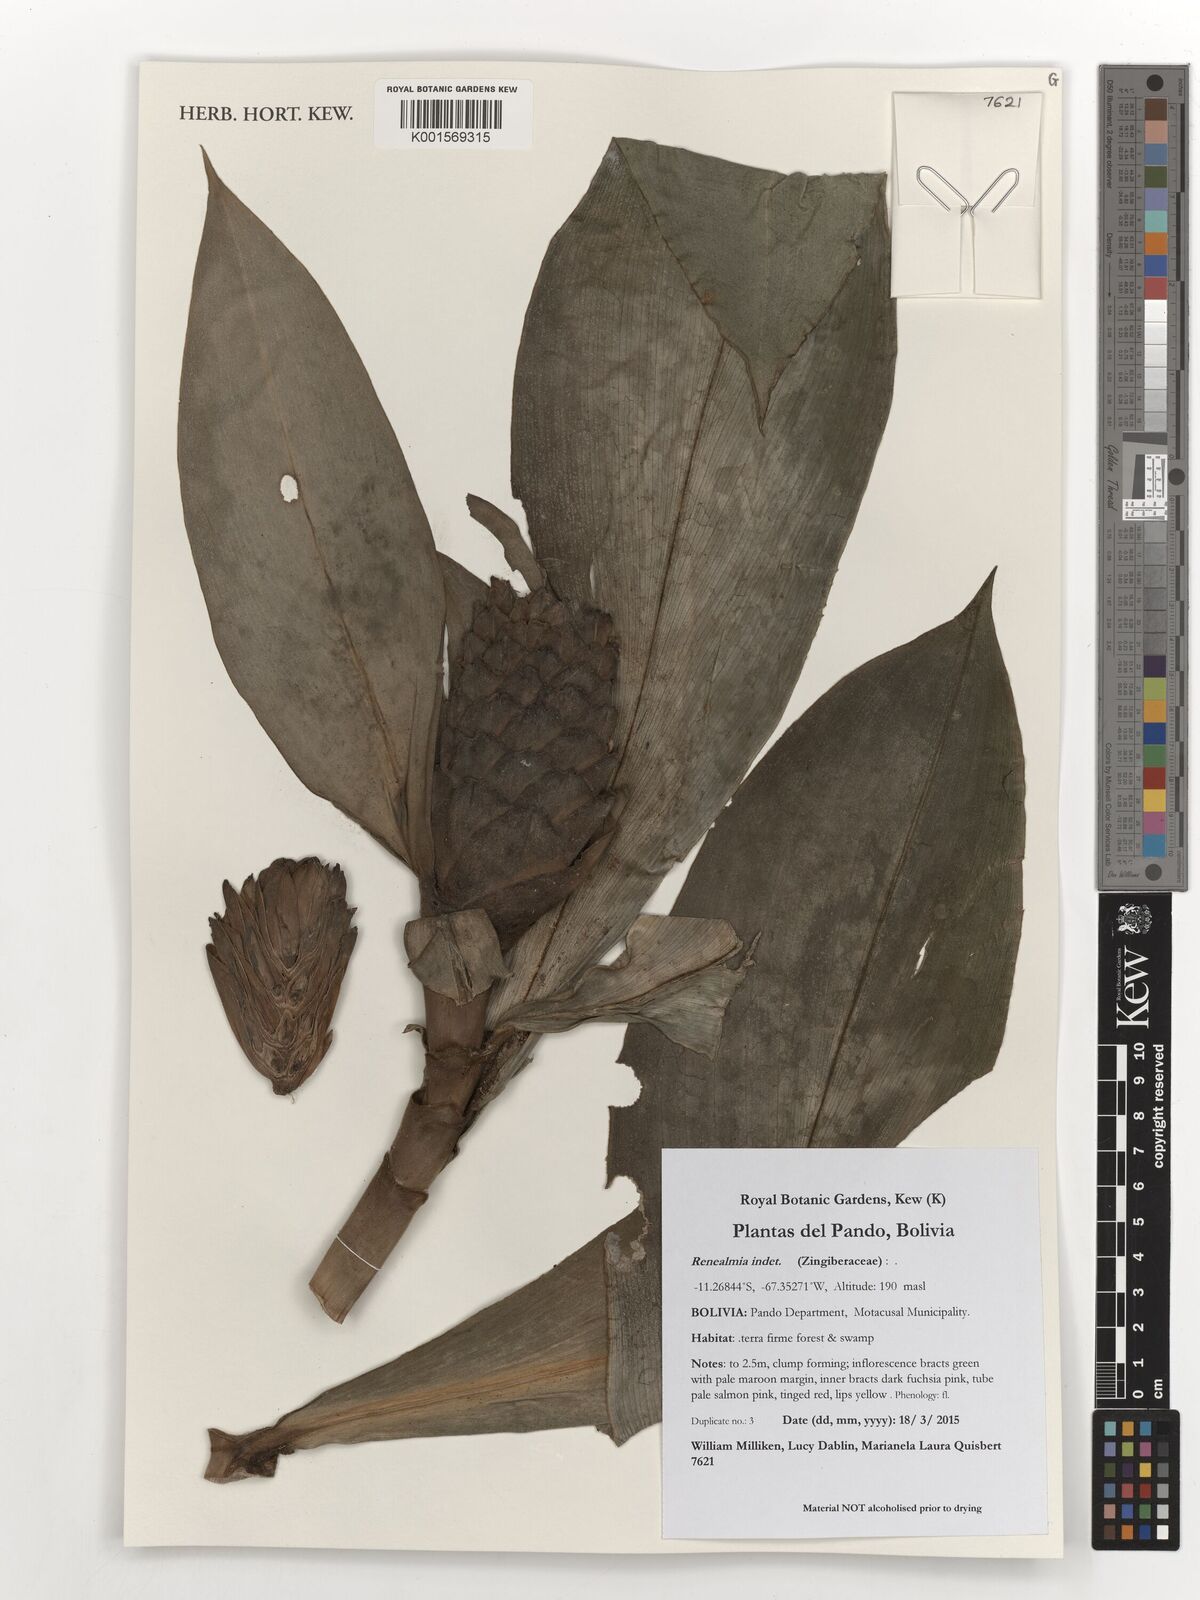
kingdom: Plantae
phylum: Tracheophyta
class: Liliopsida
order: Zingiberales
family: Zingiberaceae
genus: Renealmia
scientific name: Renealmia
